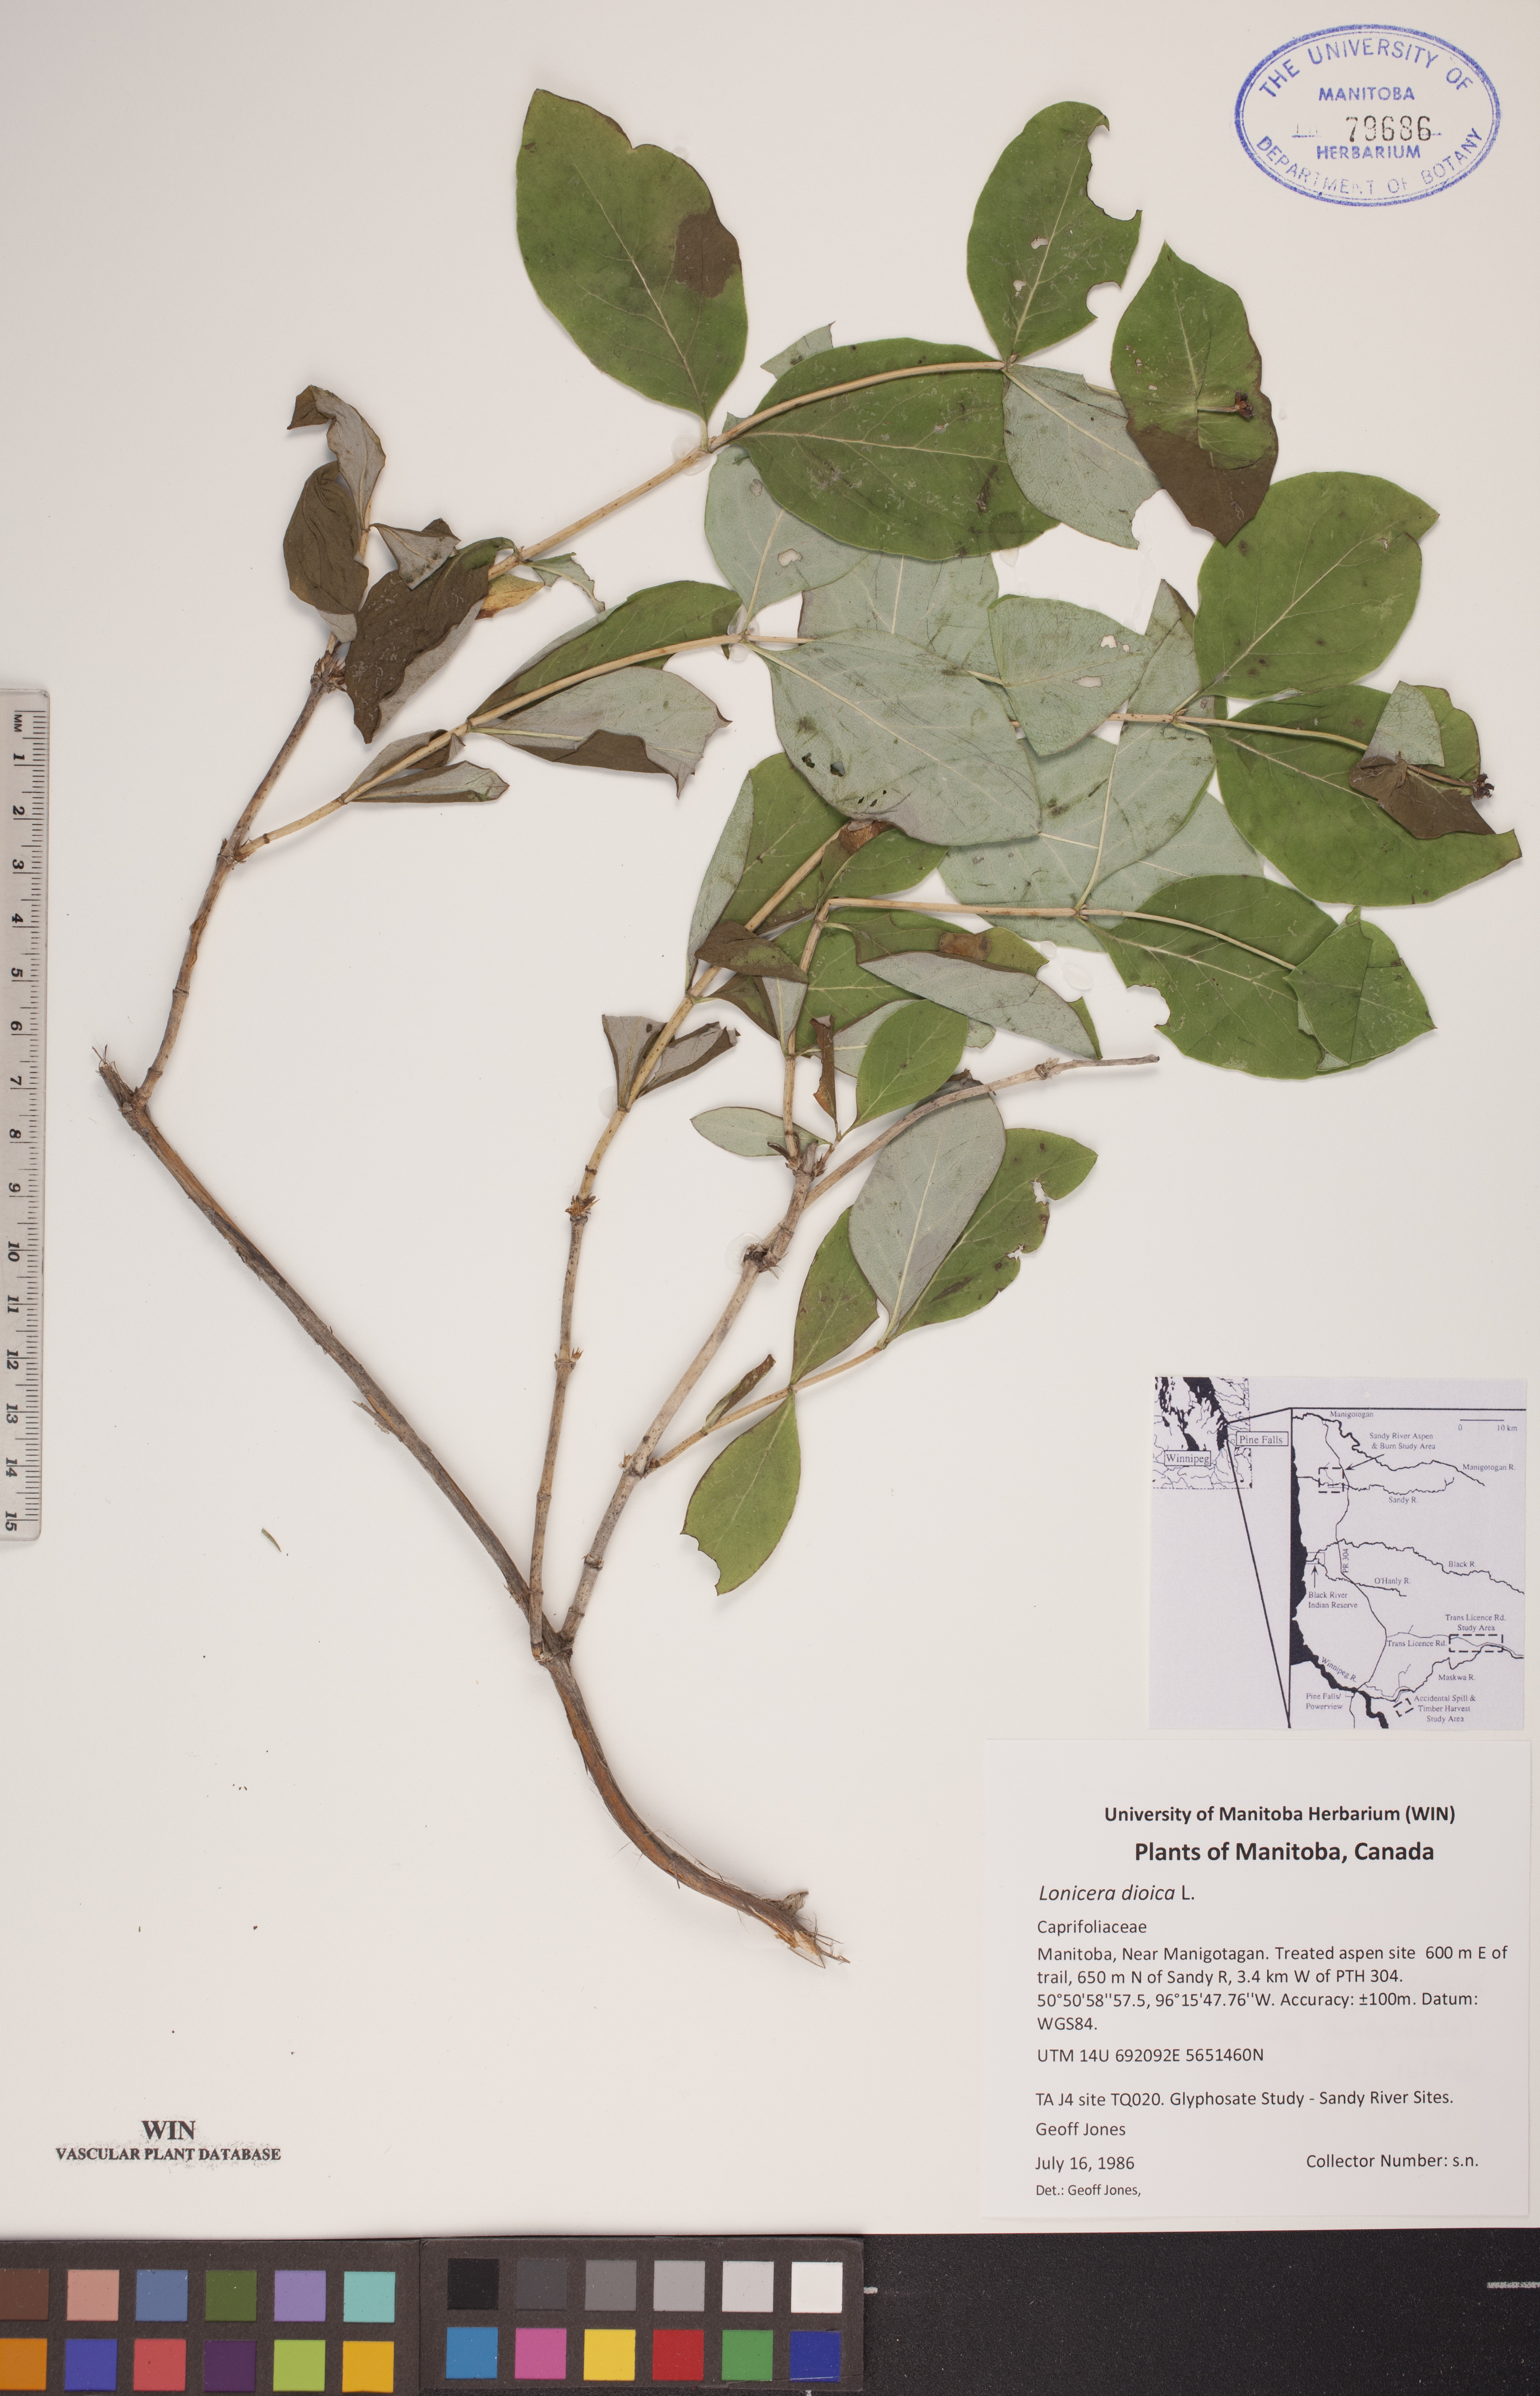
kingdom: Plantae
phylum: Tracheophyta
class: Magnoliopsida
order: Dipsacales
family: Caprifoliaceae
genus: Lonicera
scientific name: Lonicera dioica
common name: Limber honeysuckle
